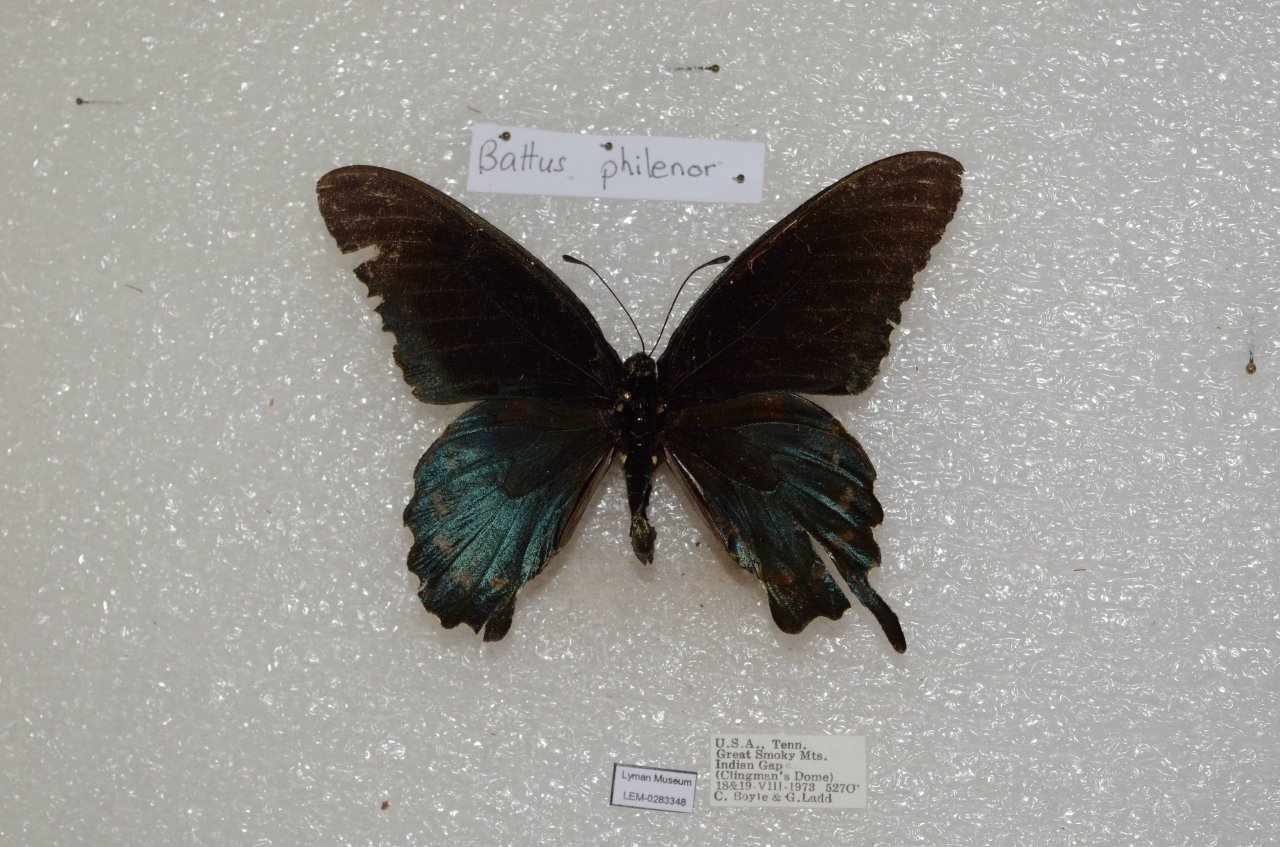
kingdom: Animalia
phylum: Arthropoda
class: Insecta
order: Lepidoptera
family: Papilionidae
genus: Battus
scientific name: Battus philenor
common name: Pipevine Swallowtail
